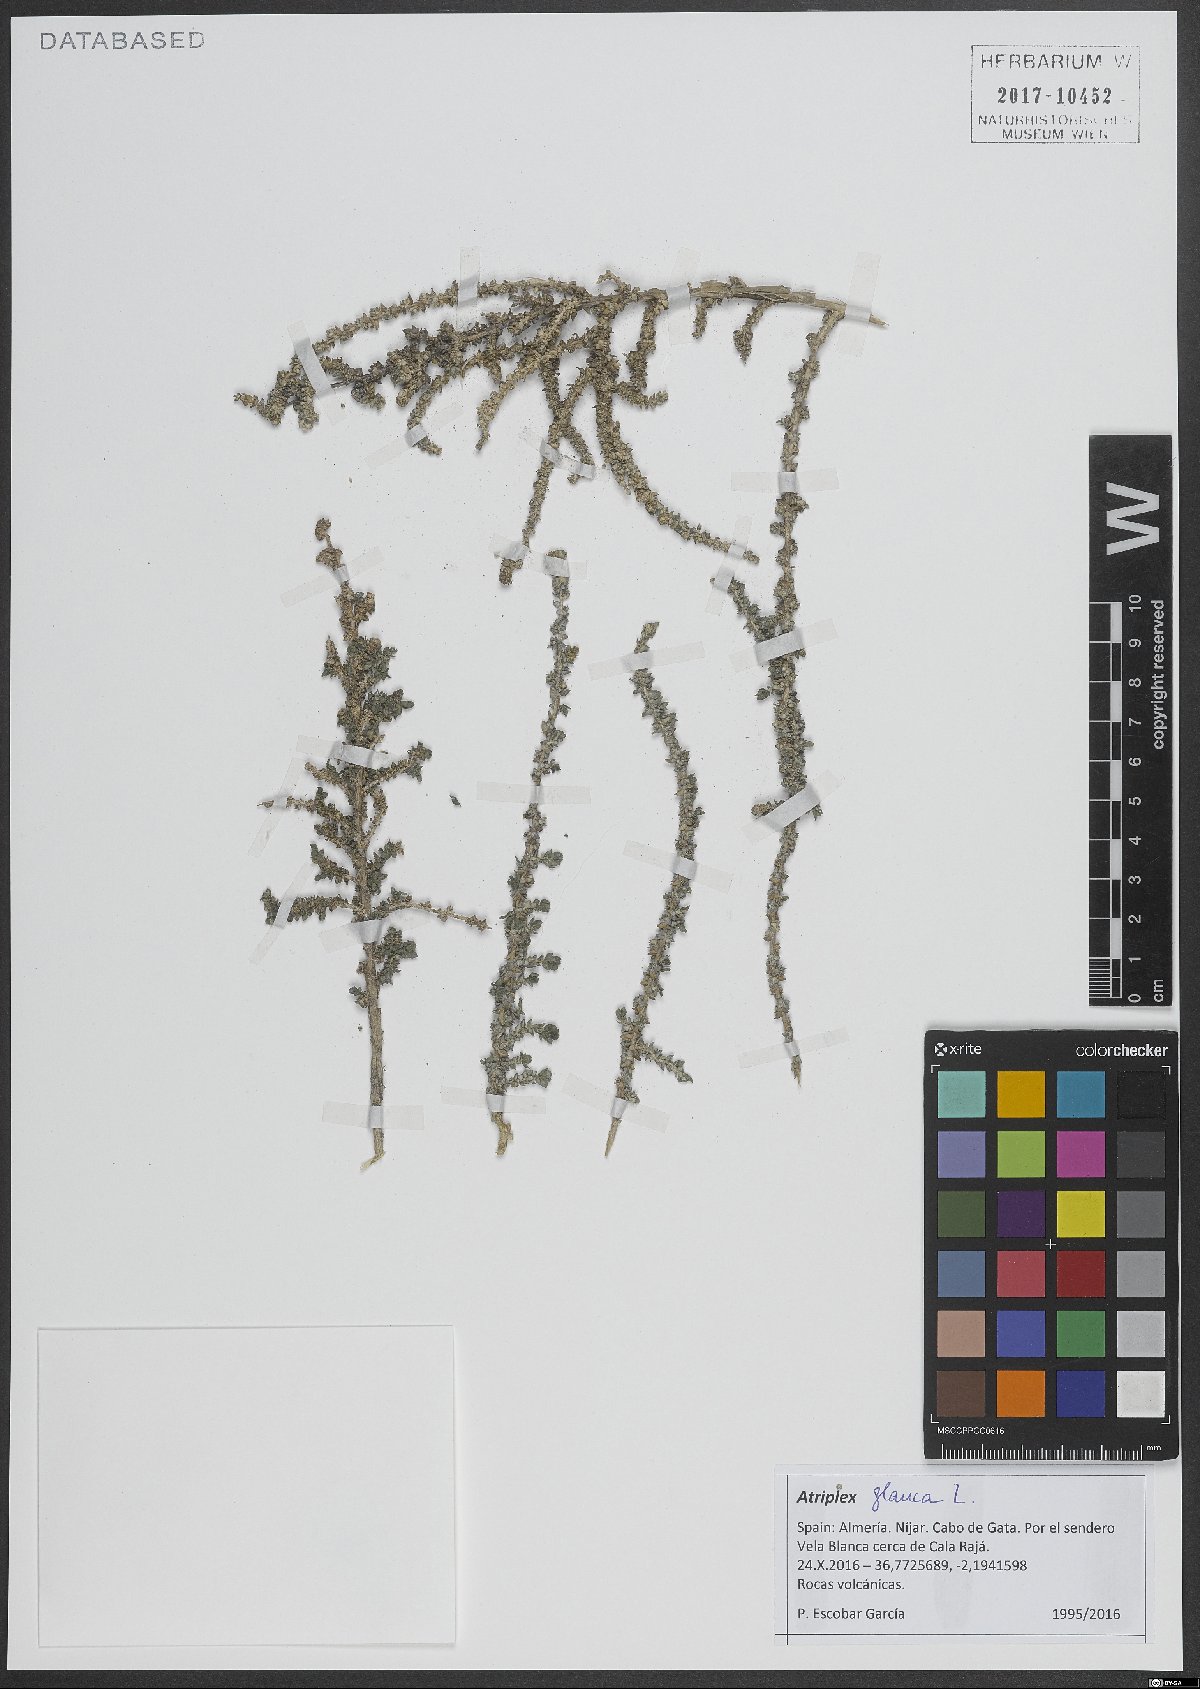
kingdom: Plantae
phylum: Tracheophyta
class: Magnoliopsida
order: Caryophyllales
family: Amaranthaceae
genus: Atriplex
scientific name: Atriplex glauca
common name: Waxy saltbush
